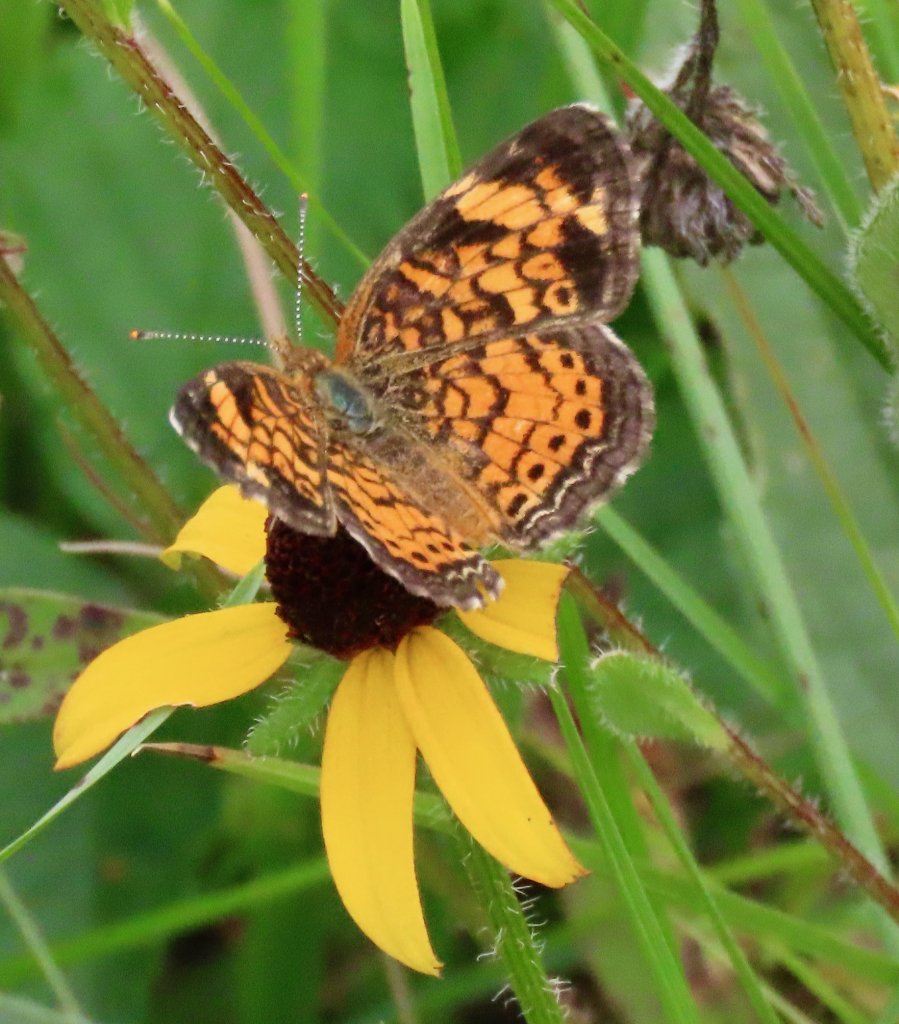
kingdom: Animalia
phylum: Arthropoda
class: Insecta
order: Lepidoptera
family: Nymphalidae
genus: Phyciodes
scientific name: Phyciodes tharos
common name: Pearl Crescent
